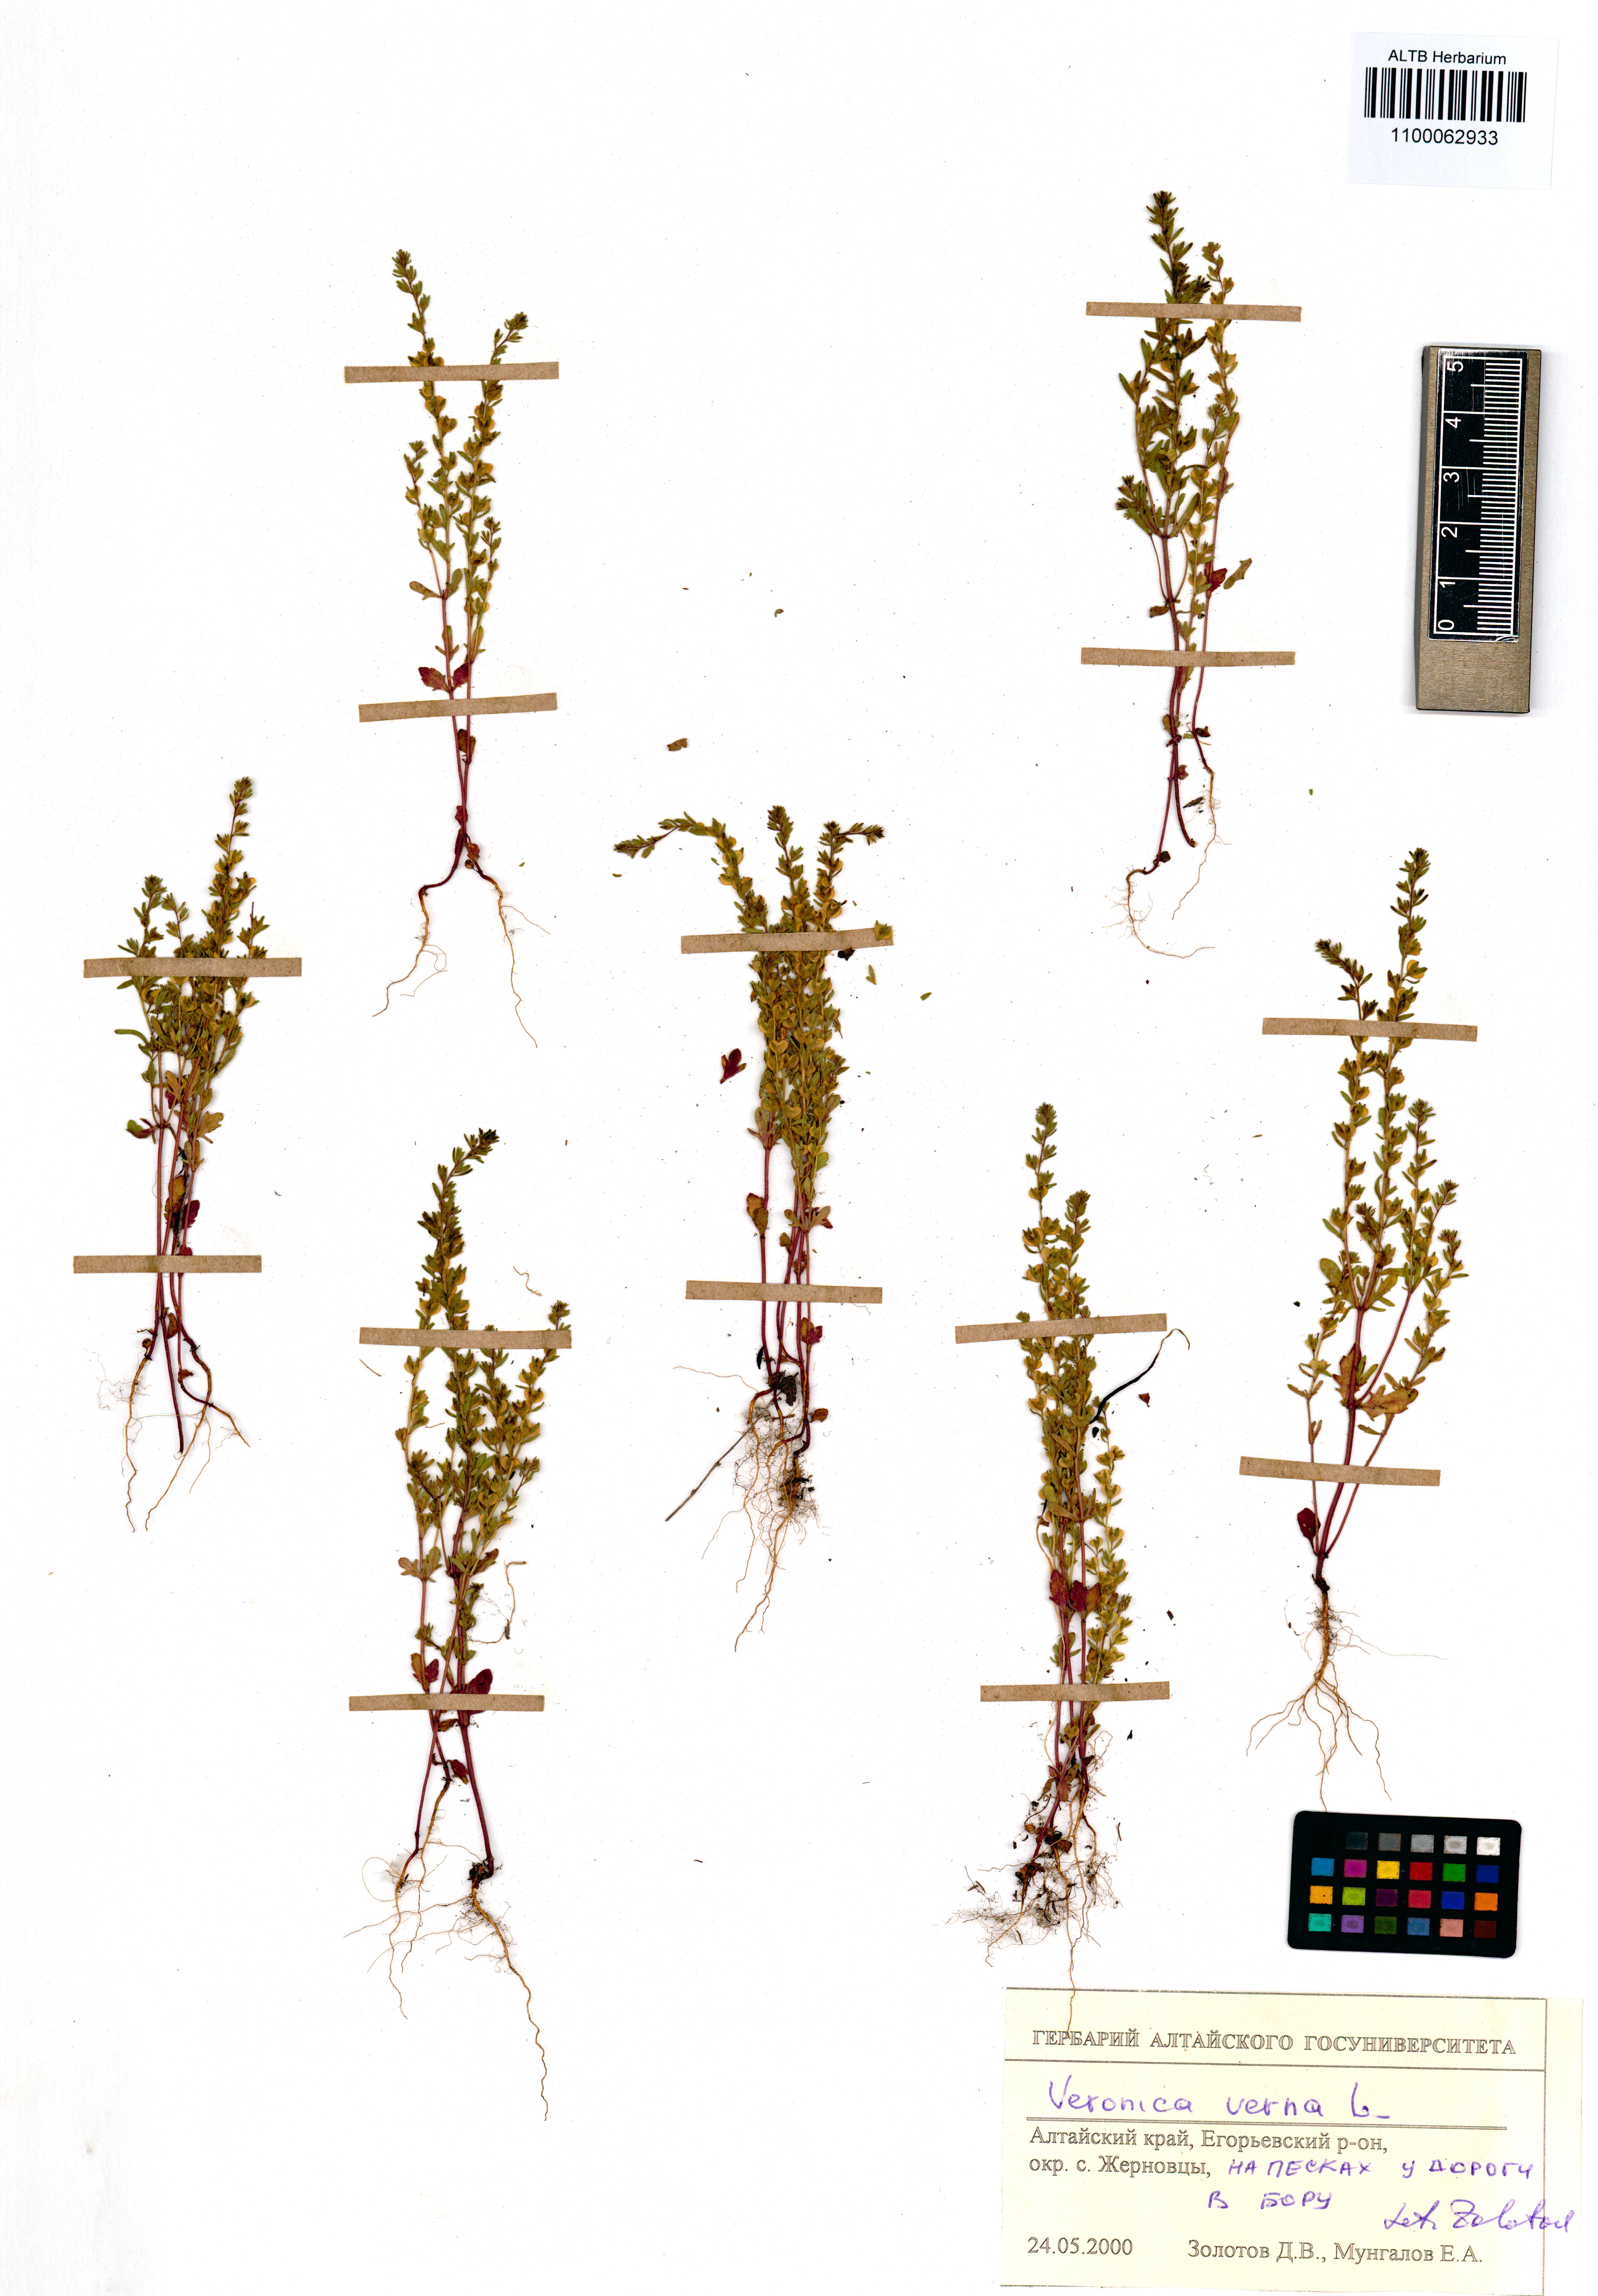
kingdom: Plantae
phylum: Tracheophyta
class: Magnoliopsida
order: Lamiales
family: Plantaginaceae
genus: Veronica
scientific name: Veronica verna
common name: Spring speedwell
